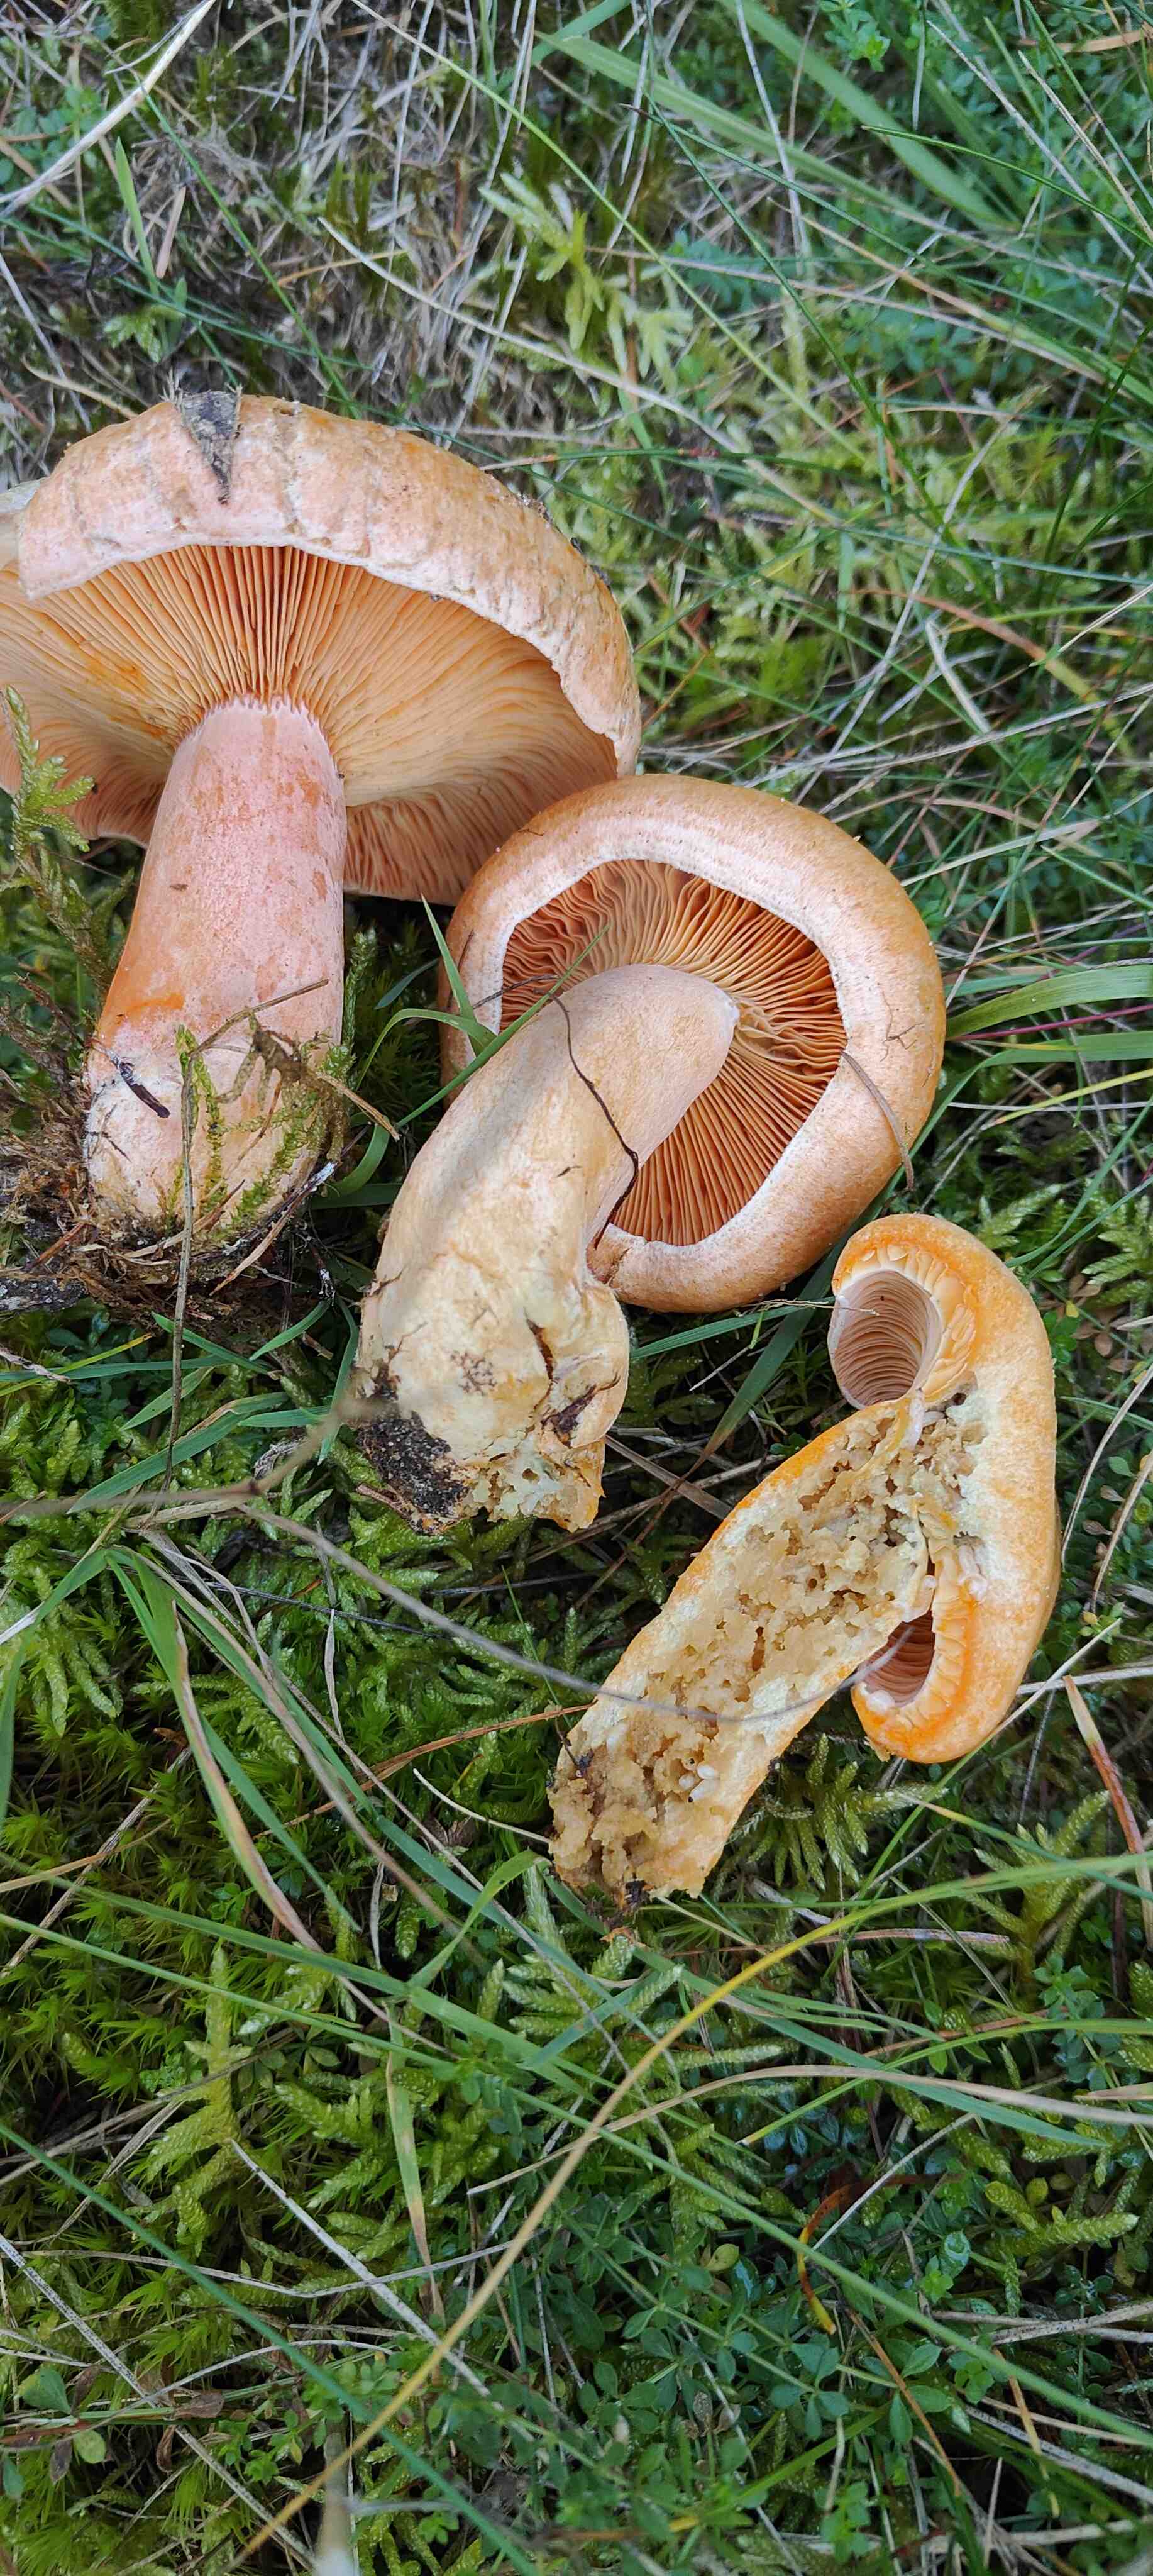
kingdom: Fungi
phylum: Basidiomycota
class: Agaricomycetes
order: Russulales
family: Russulaceae
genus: Lactarius
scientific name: Lactarius deterrimus
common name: gran-mælkehat
